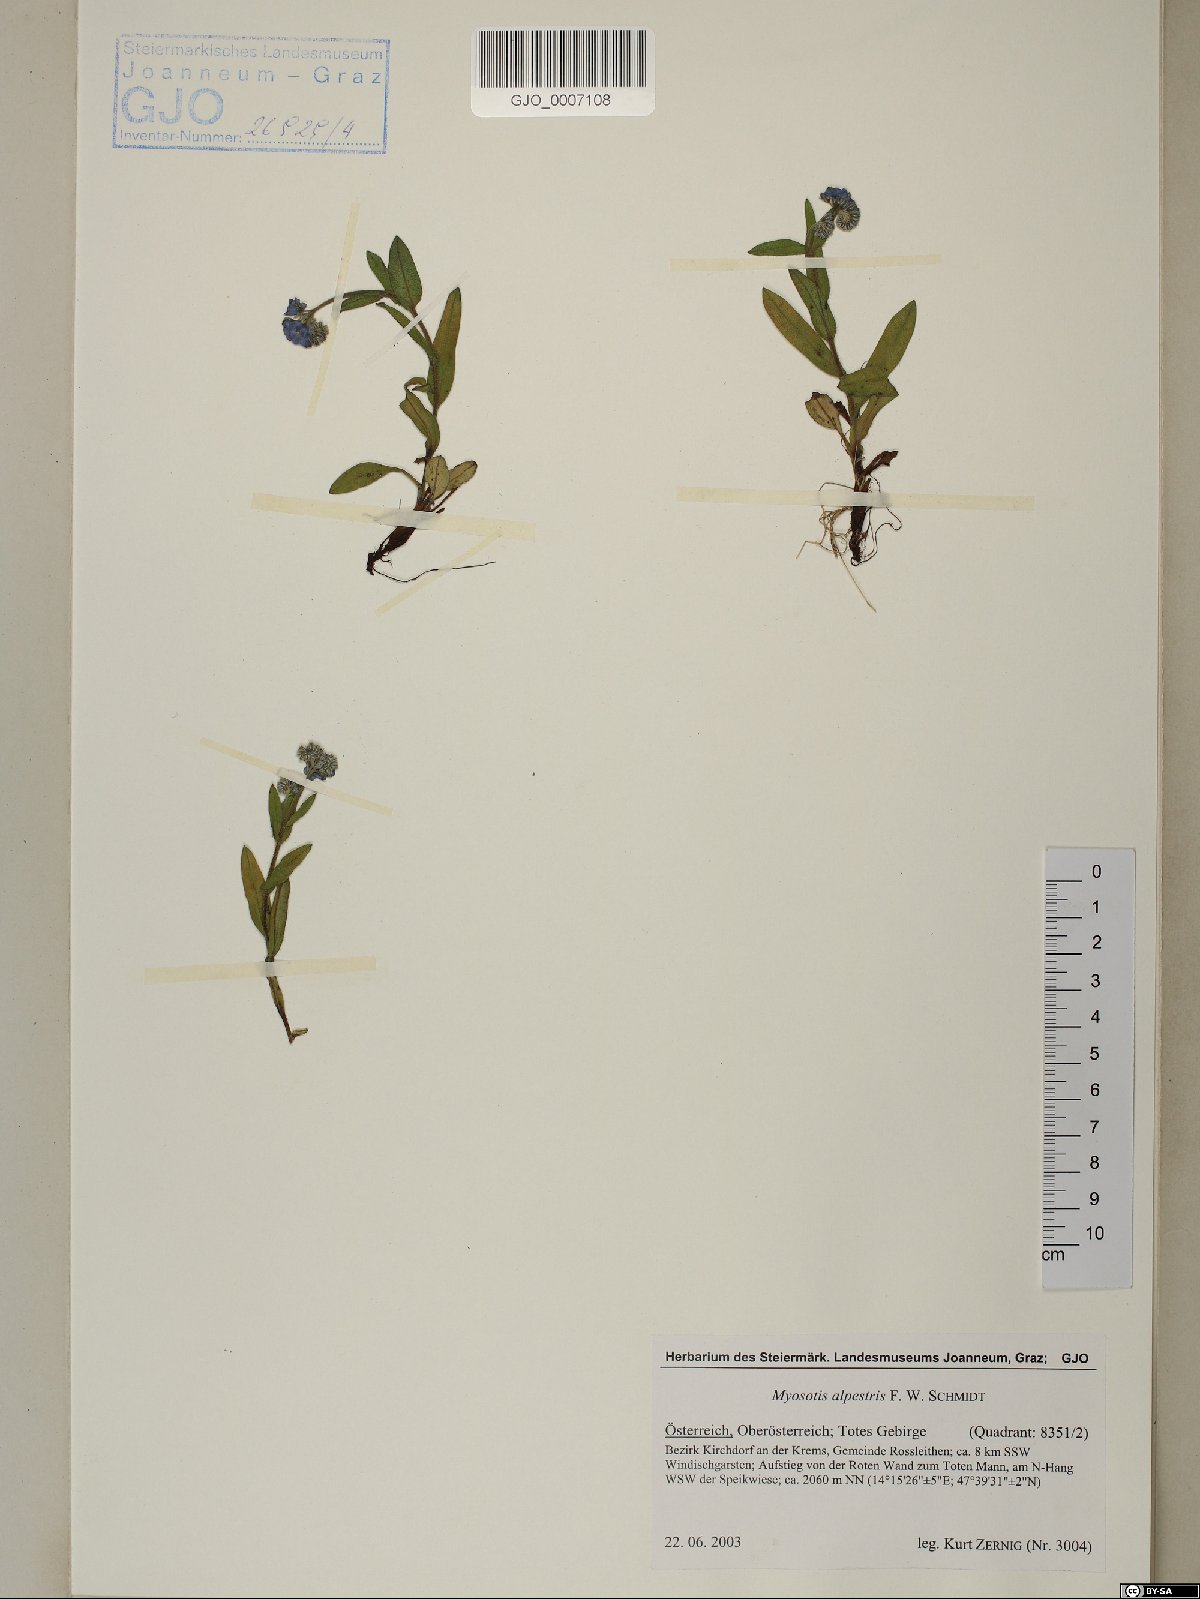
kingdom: Plantae
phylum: Tracheophyta
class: Magnoliopsida
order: Boraginales
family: Boraginaceae
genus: Myosotis
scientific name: Myosotis alpestris
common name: Alpine forget-me-not
